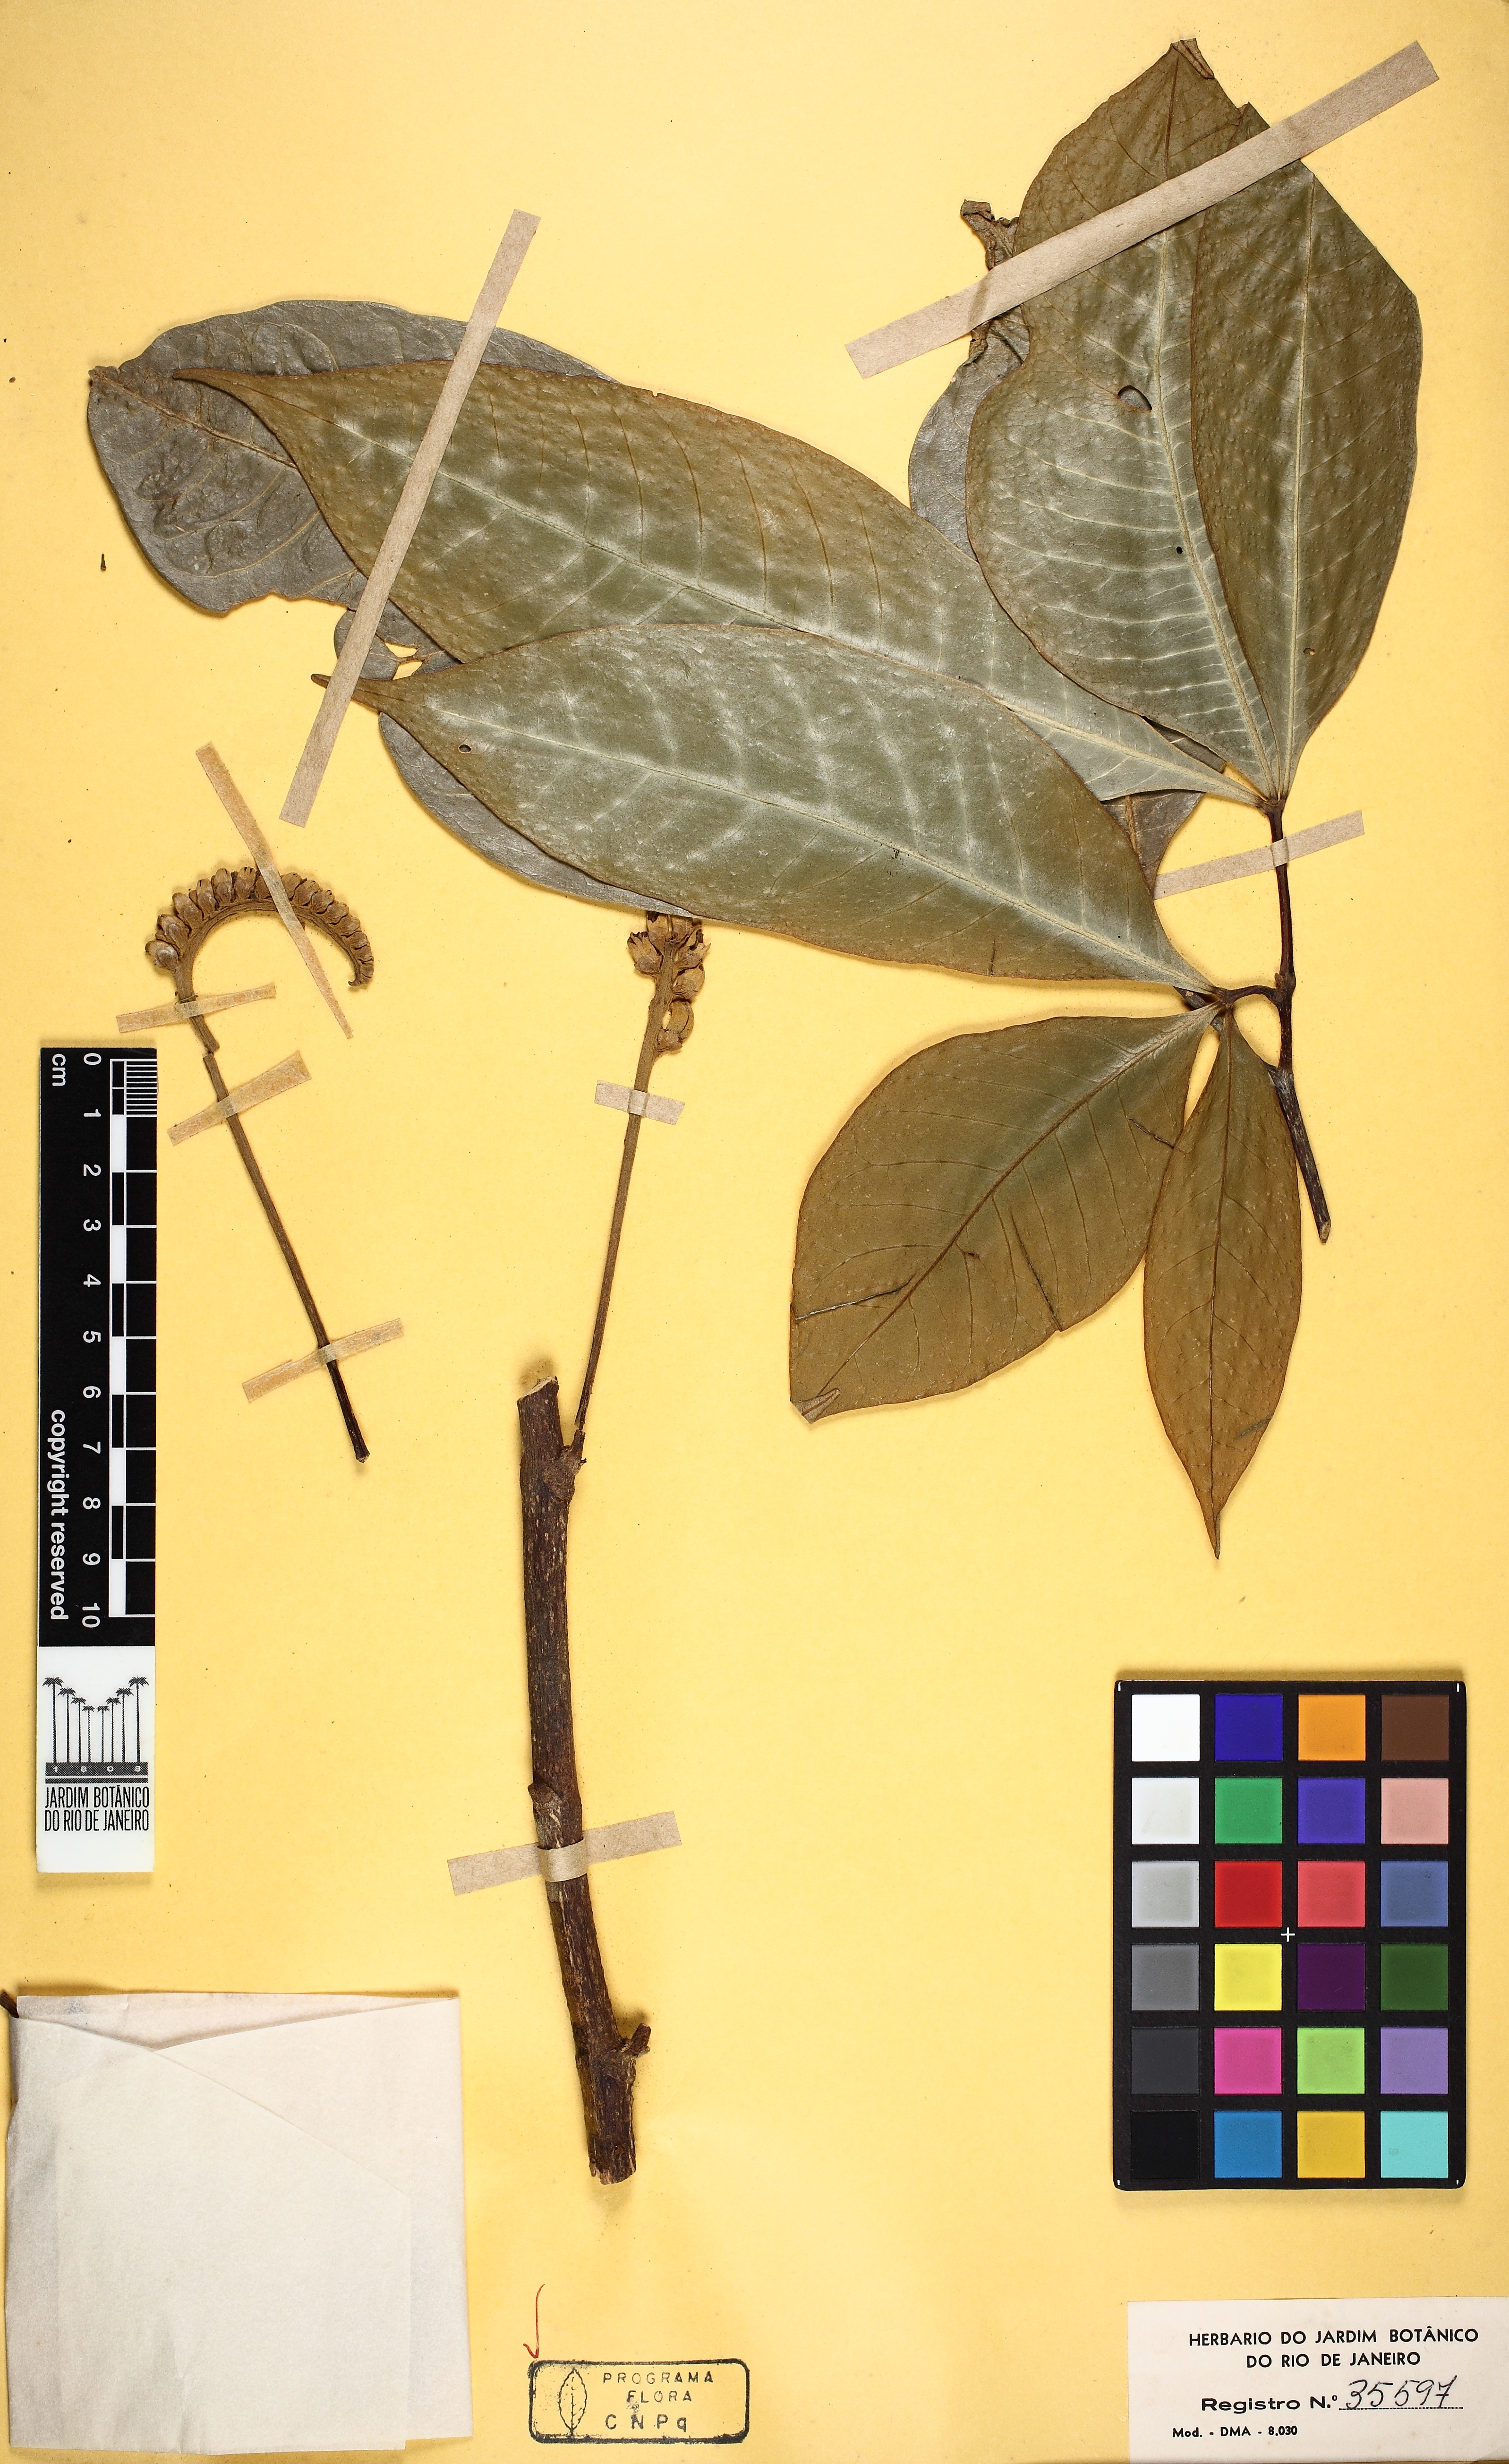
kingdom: Plantae
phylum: Tracheophyta
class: Magnoliopsida
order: Sapindales
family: Rutaceae
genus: Raputia
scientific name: Raputia ulei
